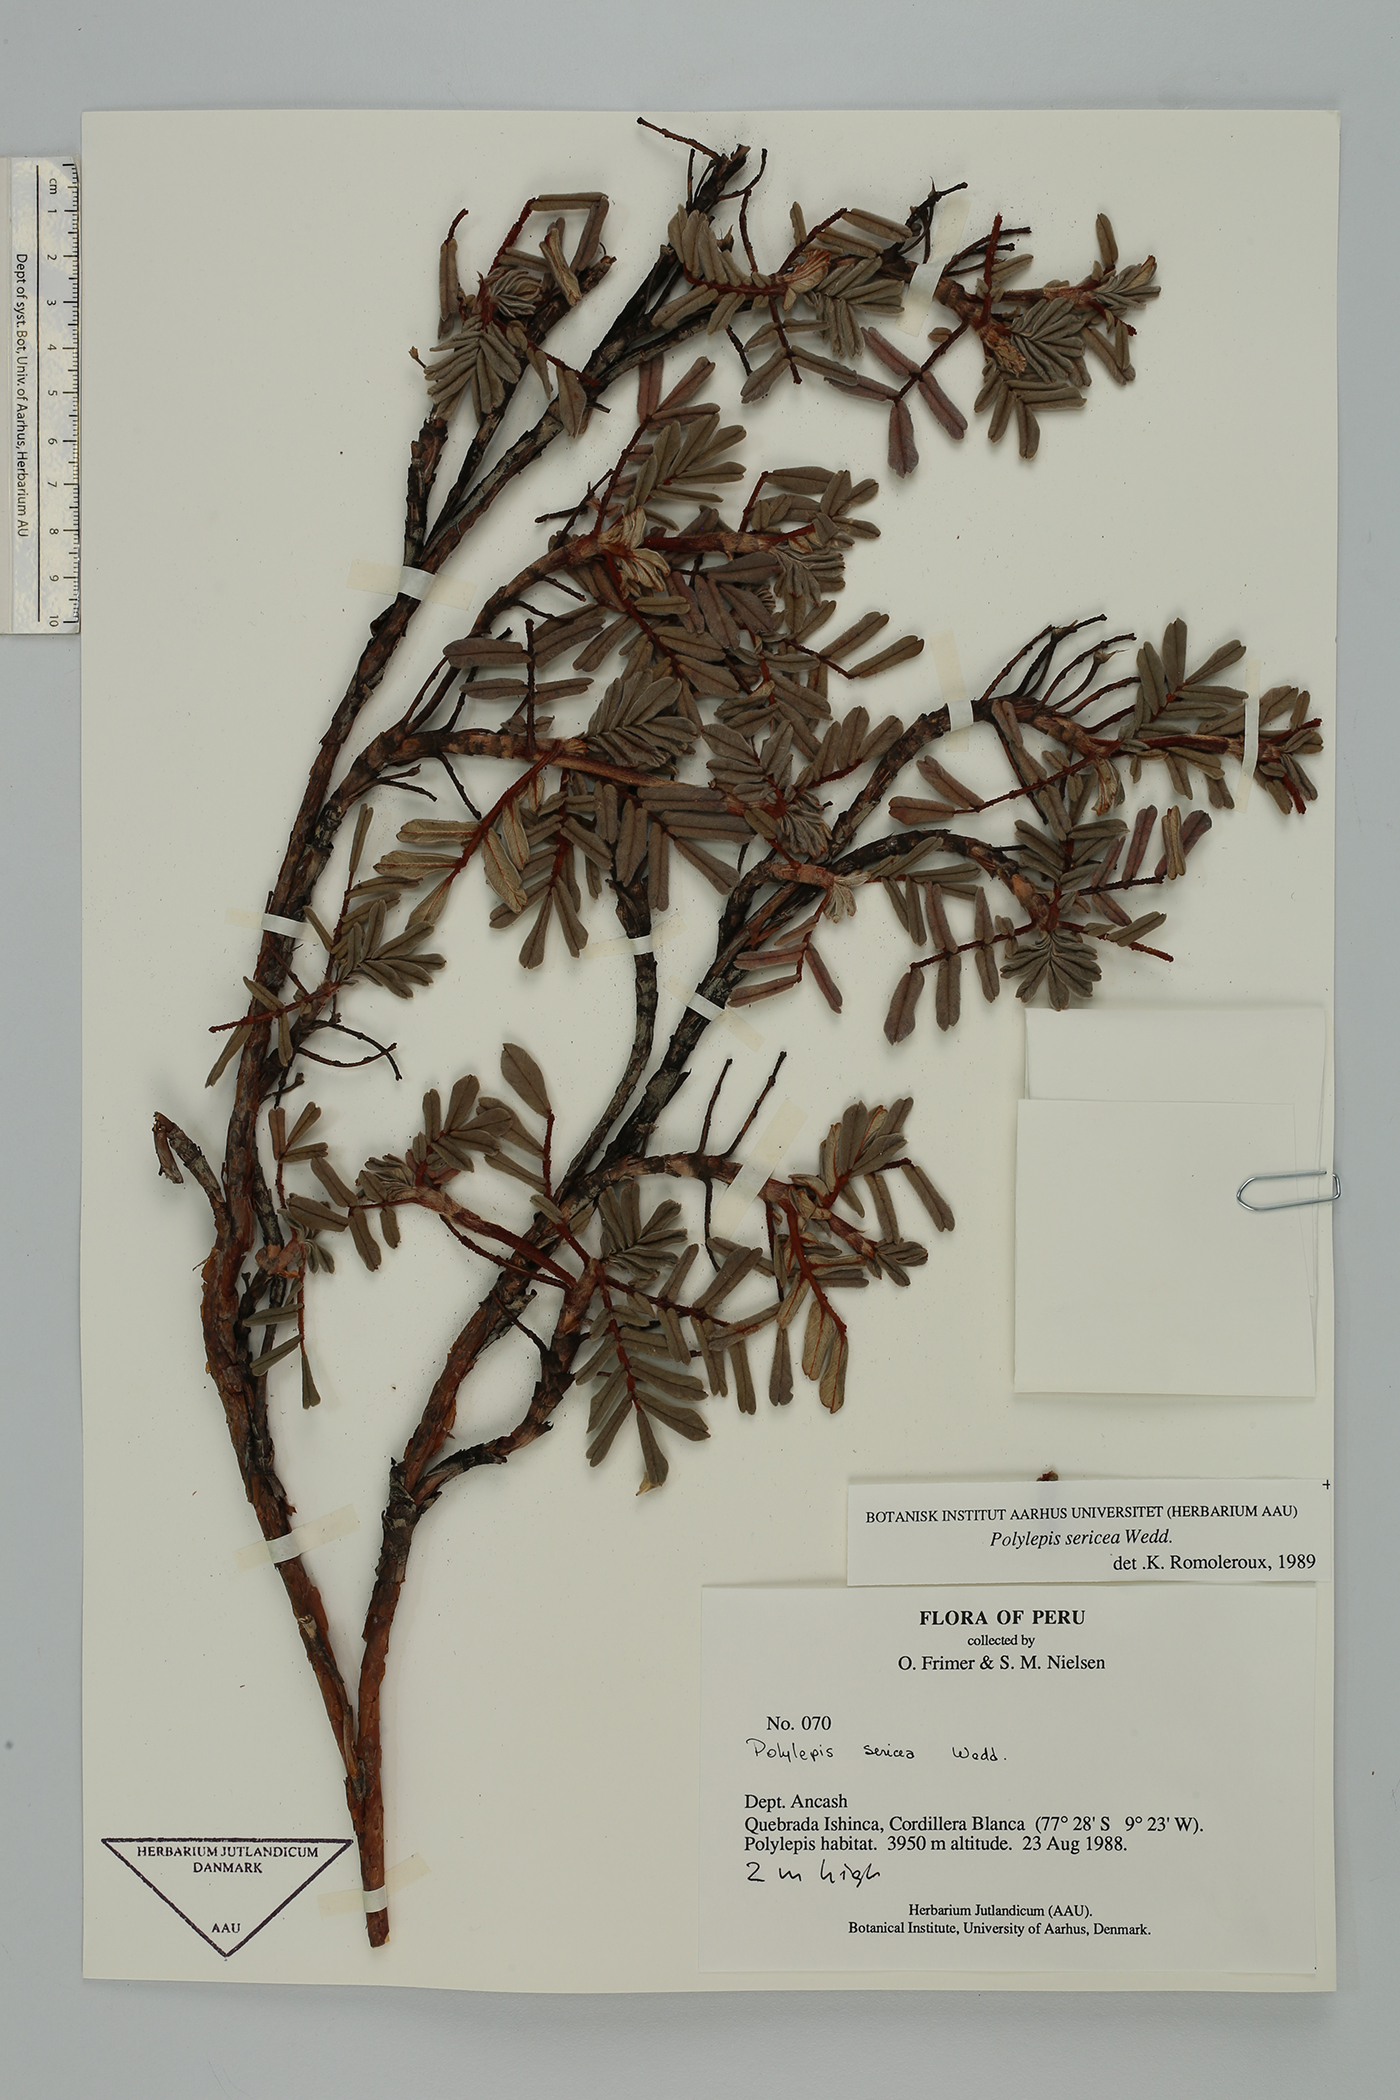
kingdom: Plantae
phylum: Tracheophyta
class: Magnoliopsida
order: Rosales
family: Rosaceae
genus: Polylepis
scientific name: Polylepis sericea
